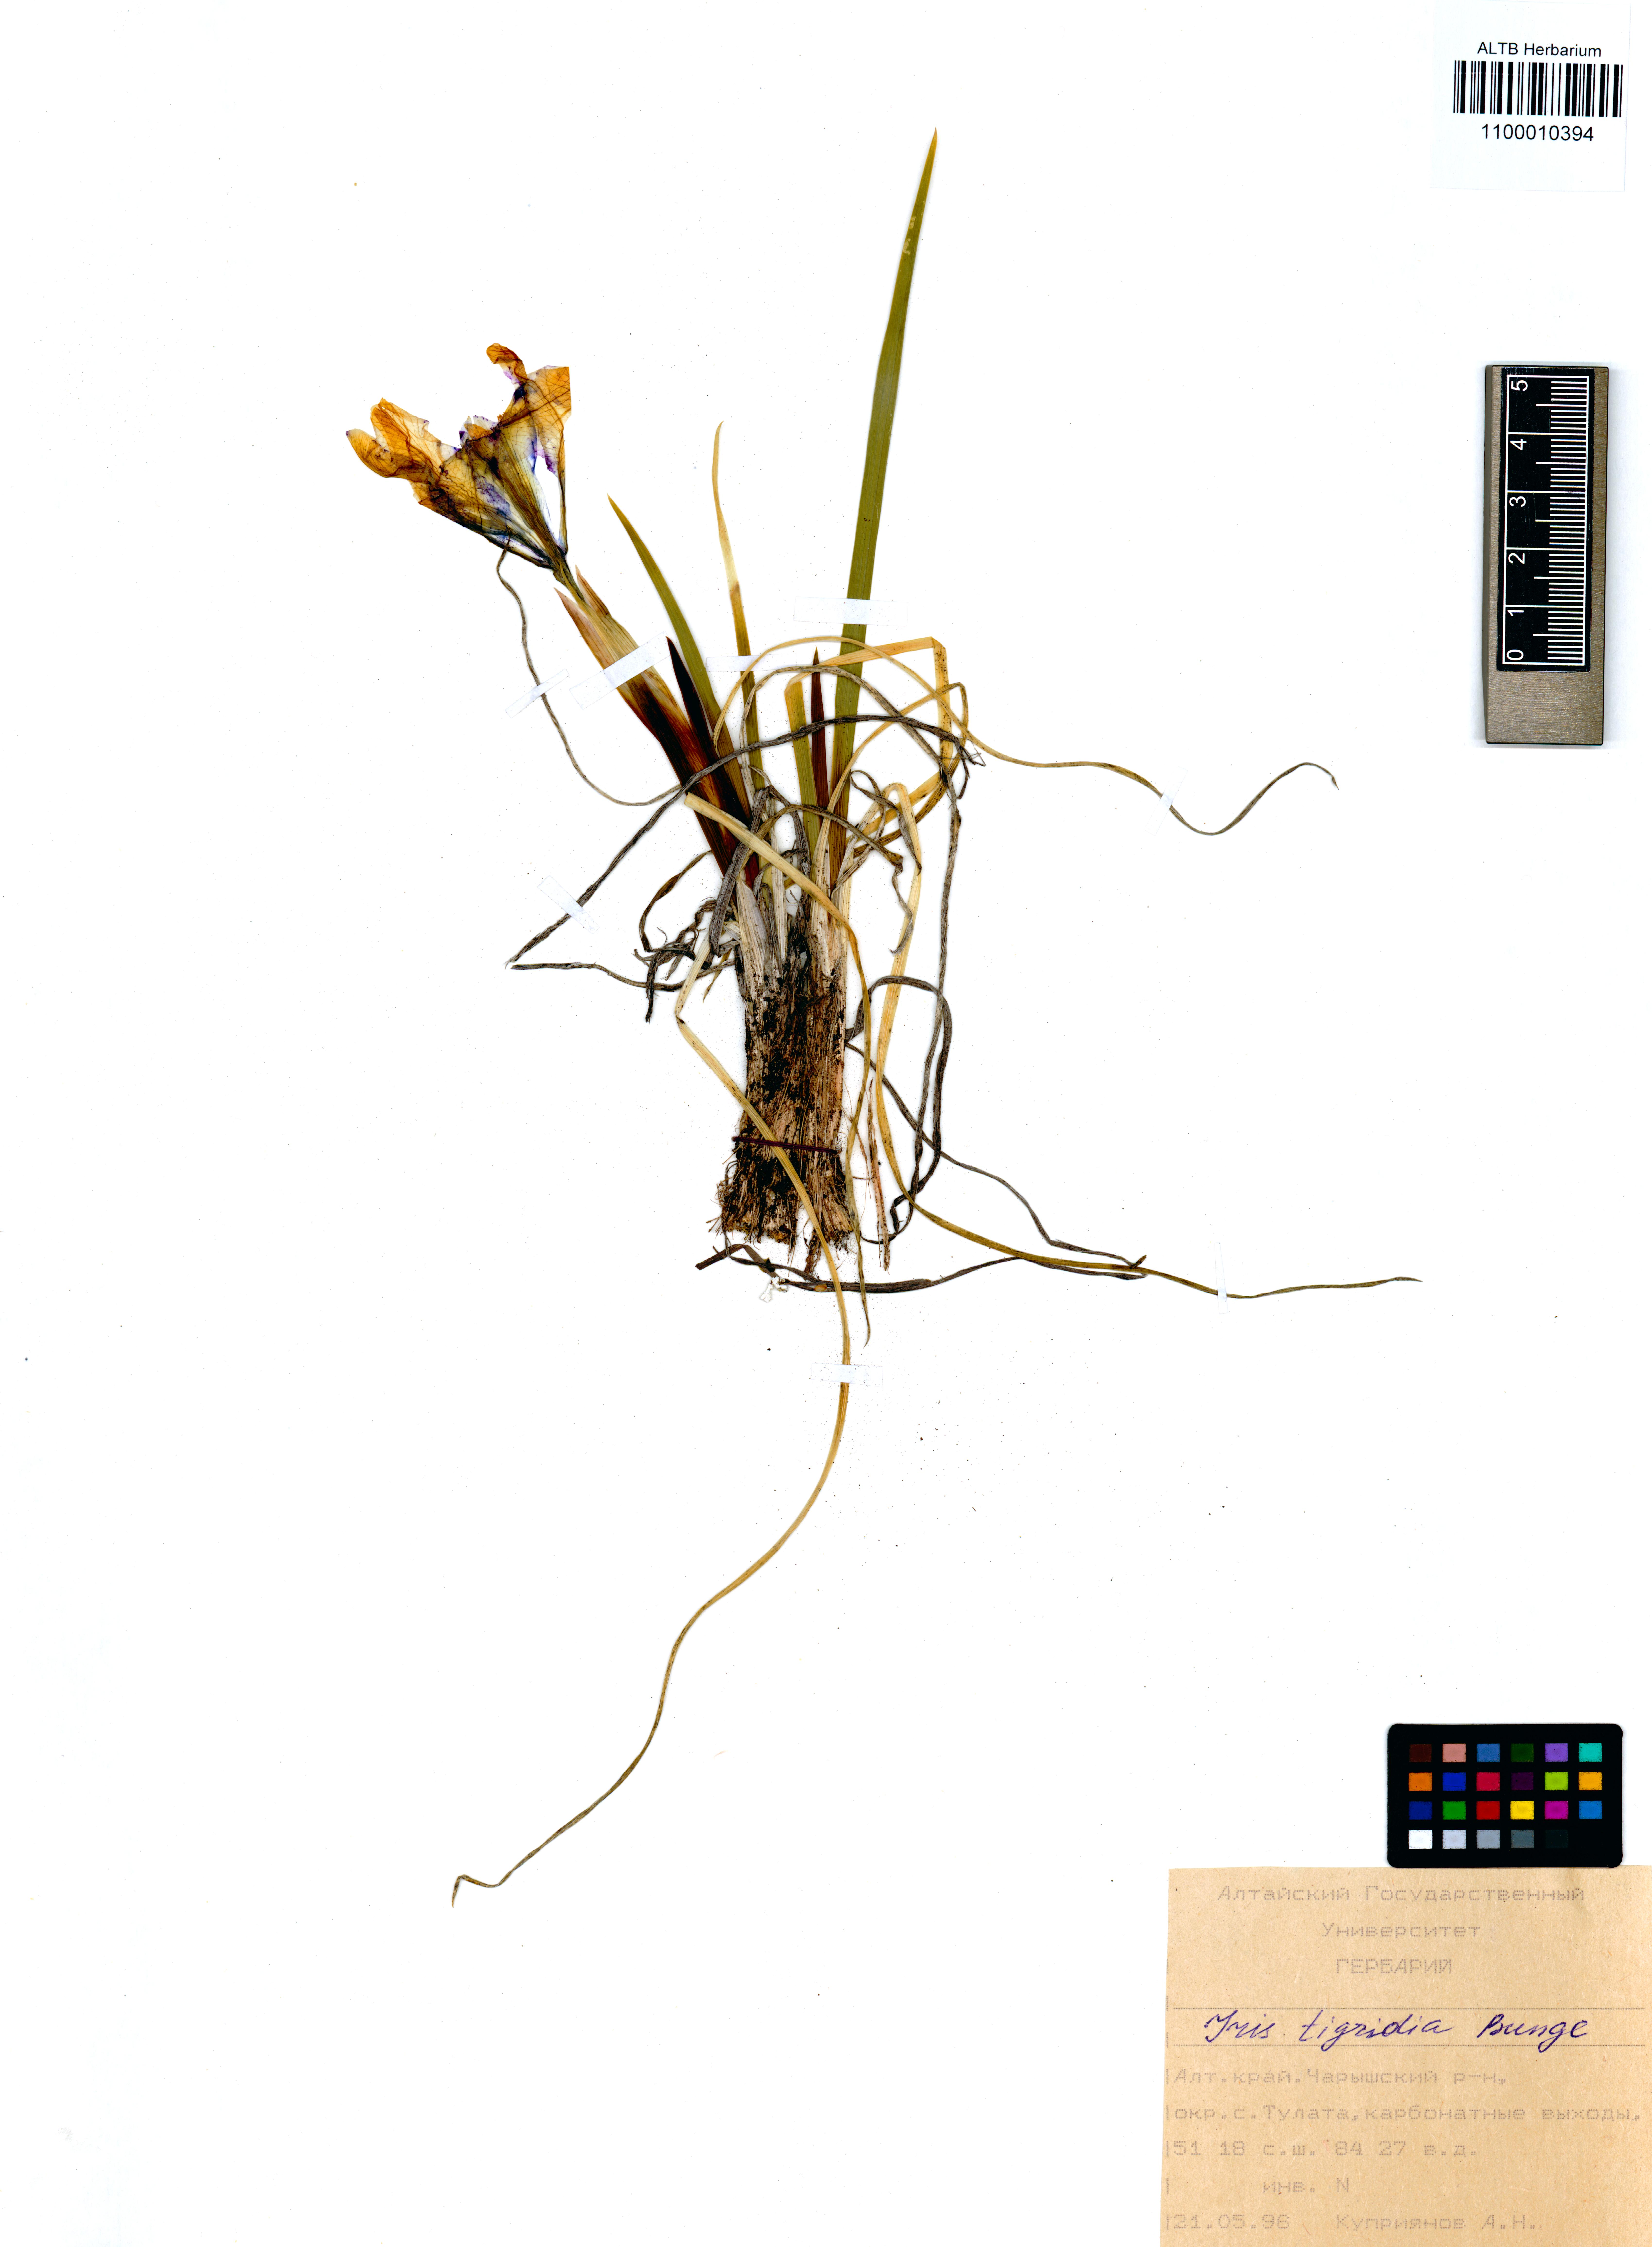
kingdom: Plantae
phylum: Tracheophyta
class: Liliopsida
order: Asparagales
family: Iridaceae
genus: Iris
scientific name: Iris tigridia
